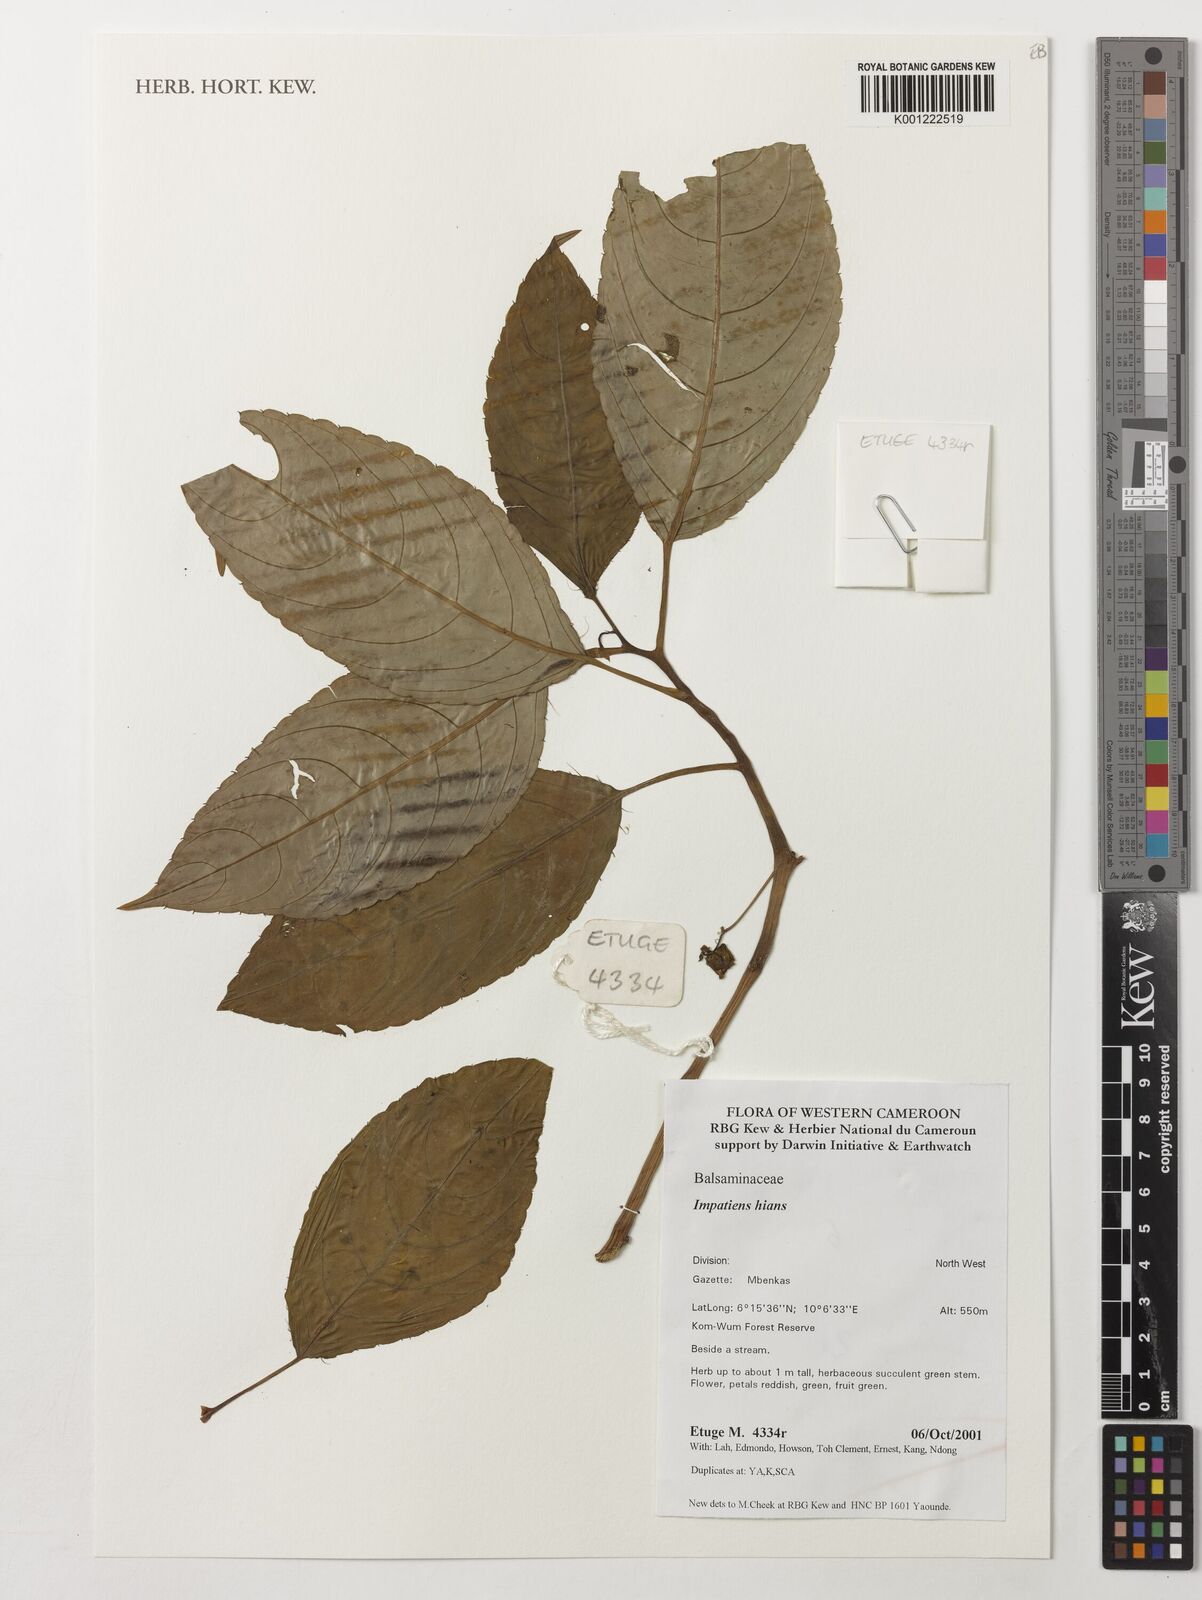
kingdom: Plantae
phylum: Tracheophyta
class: Magnoliopsida
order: Ericales
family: Balsaminaceae
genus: Impatiens
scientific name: Impatiens hians
